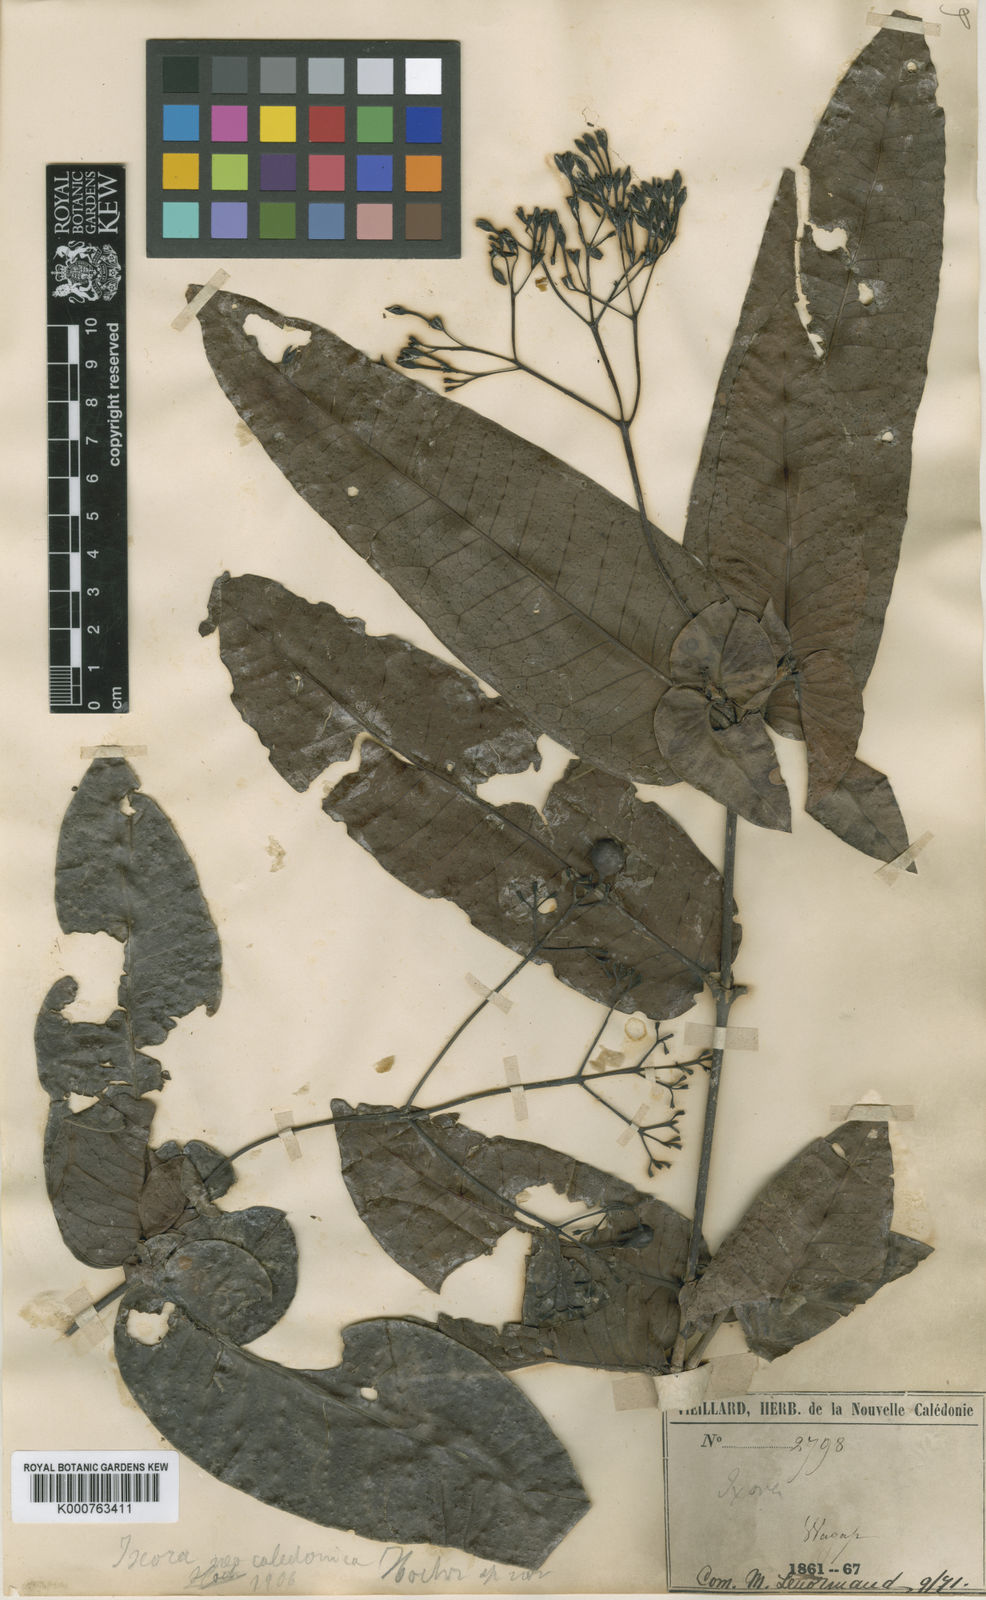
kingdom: Plantae
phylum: Tracheophyta
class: Magnoliopsida
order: Gentianales
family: Rubiaceae
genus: Ixora
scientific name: Ixora yaouhensis
